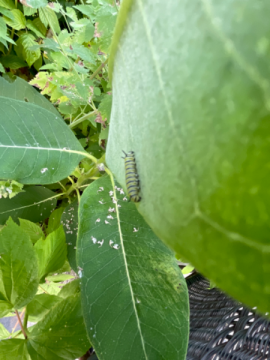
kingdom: Animalia
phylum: Arthropoda
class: Insecta
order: Lepidoptera
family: Nymphalidae
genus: Danaus
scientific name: Danaus plexippus
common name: Monarch
